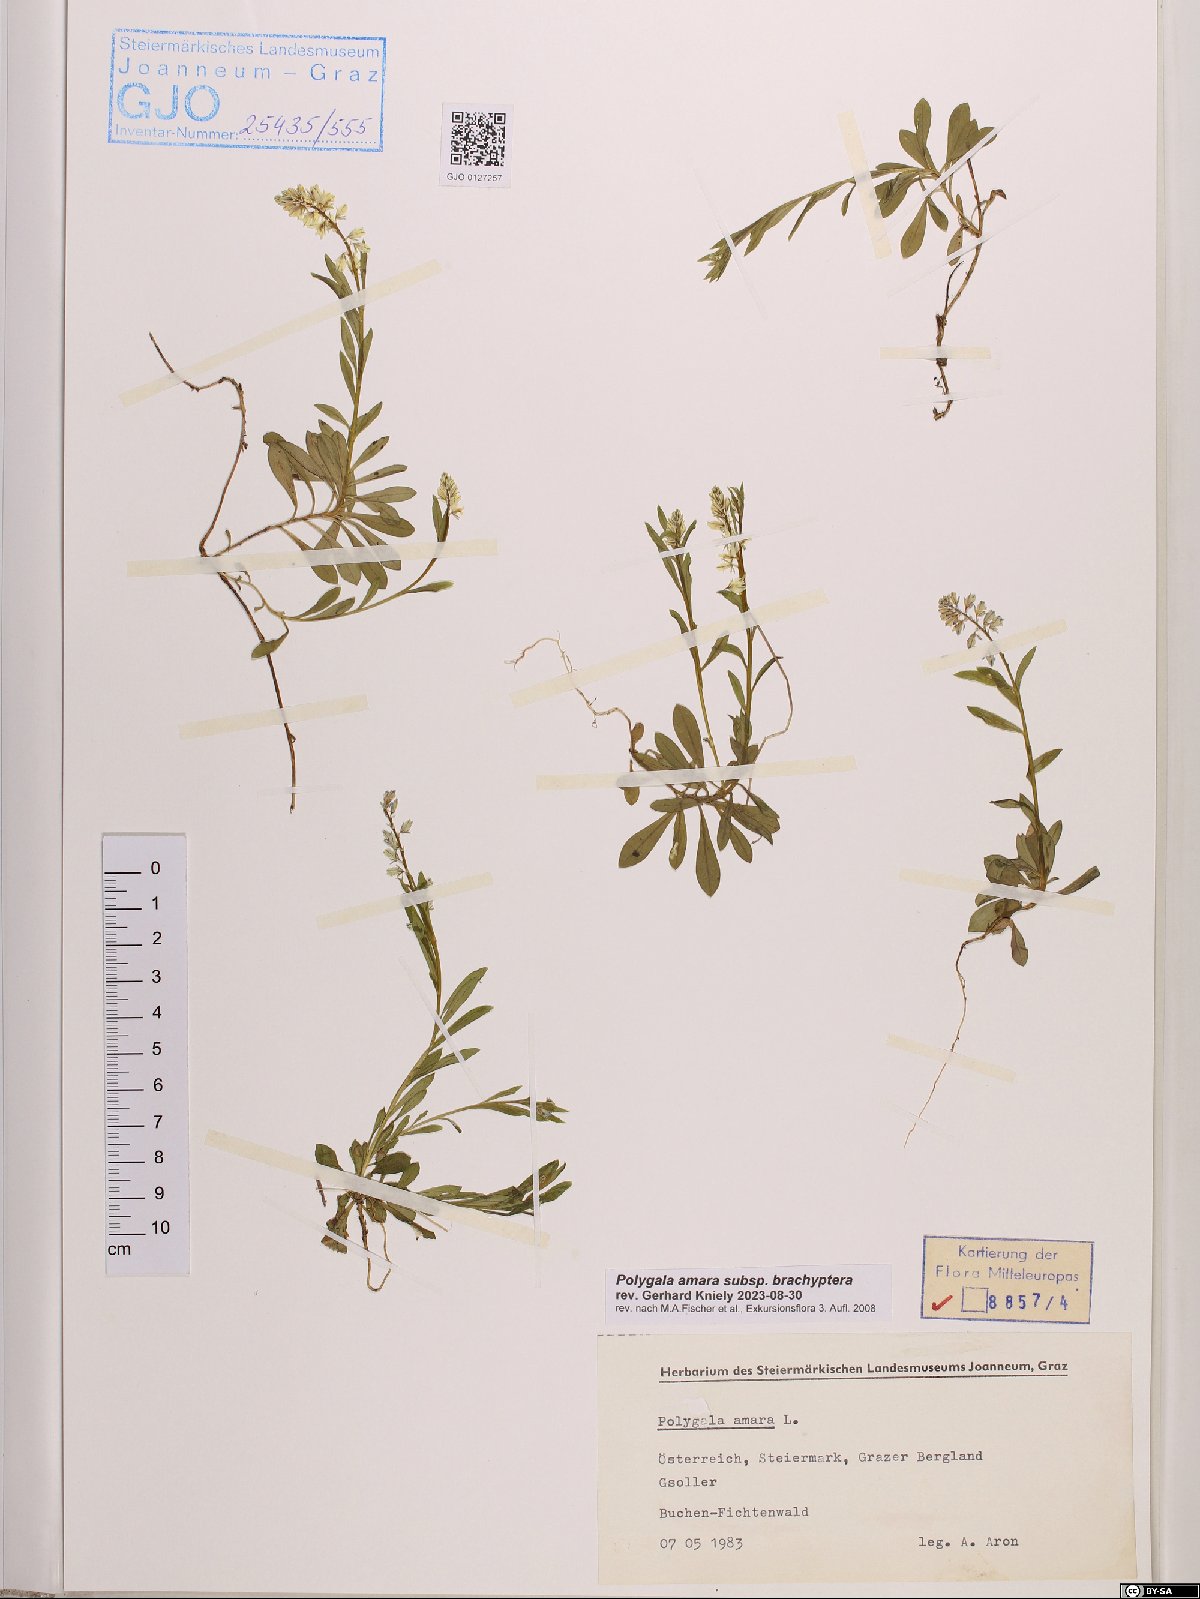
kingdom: Plantae
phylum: Tracheophyta
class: Magnoliopsida
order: Fabales
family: Polygalaceae
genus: Polygala
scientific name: Polygala amara
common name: Milkwort
